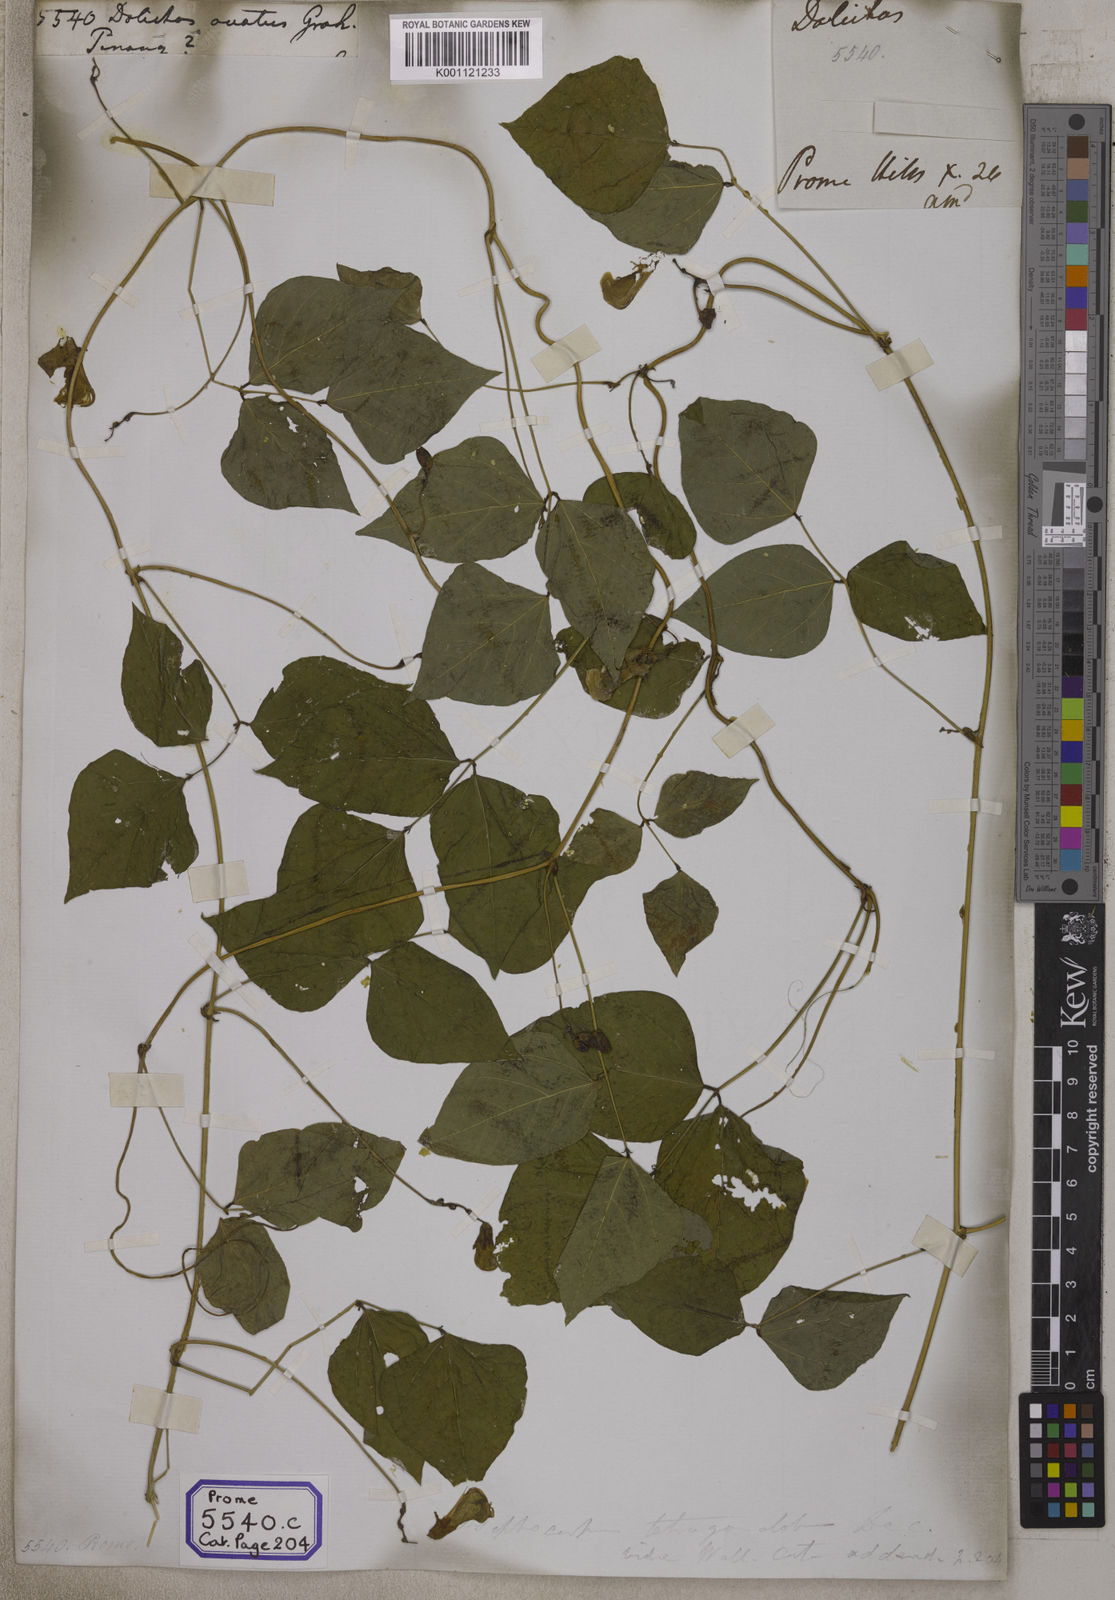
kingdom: Plantae
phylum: Tracheophyta
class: Magnoliopsida
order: Fabales
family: Fabaceae
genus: Psophocarpus
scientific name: Psophocarpus tetragonolobus
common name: Goa-bean
